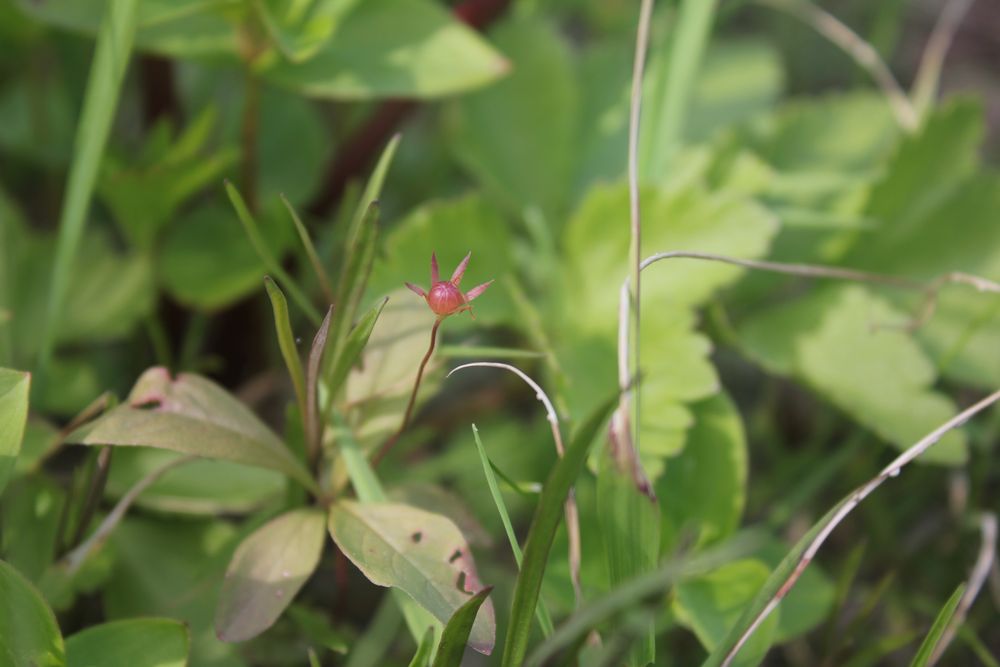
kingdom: Plantae
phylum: Tracheophyta
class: Magnoliopsida
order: Ericales
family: Primulaceae
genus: Lysimachia
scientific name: Lysimachia
